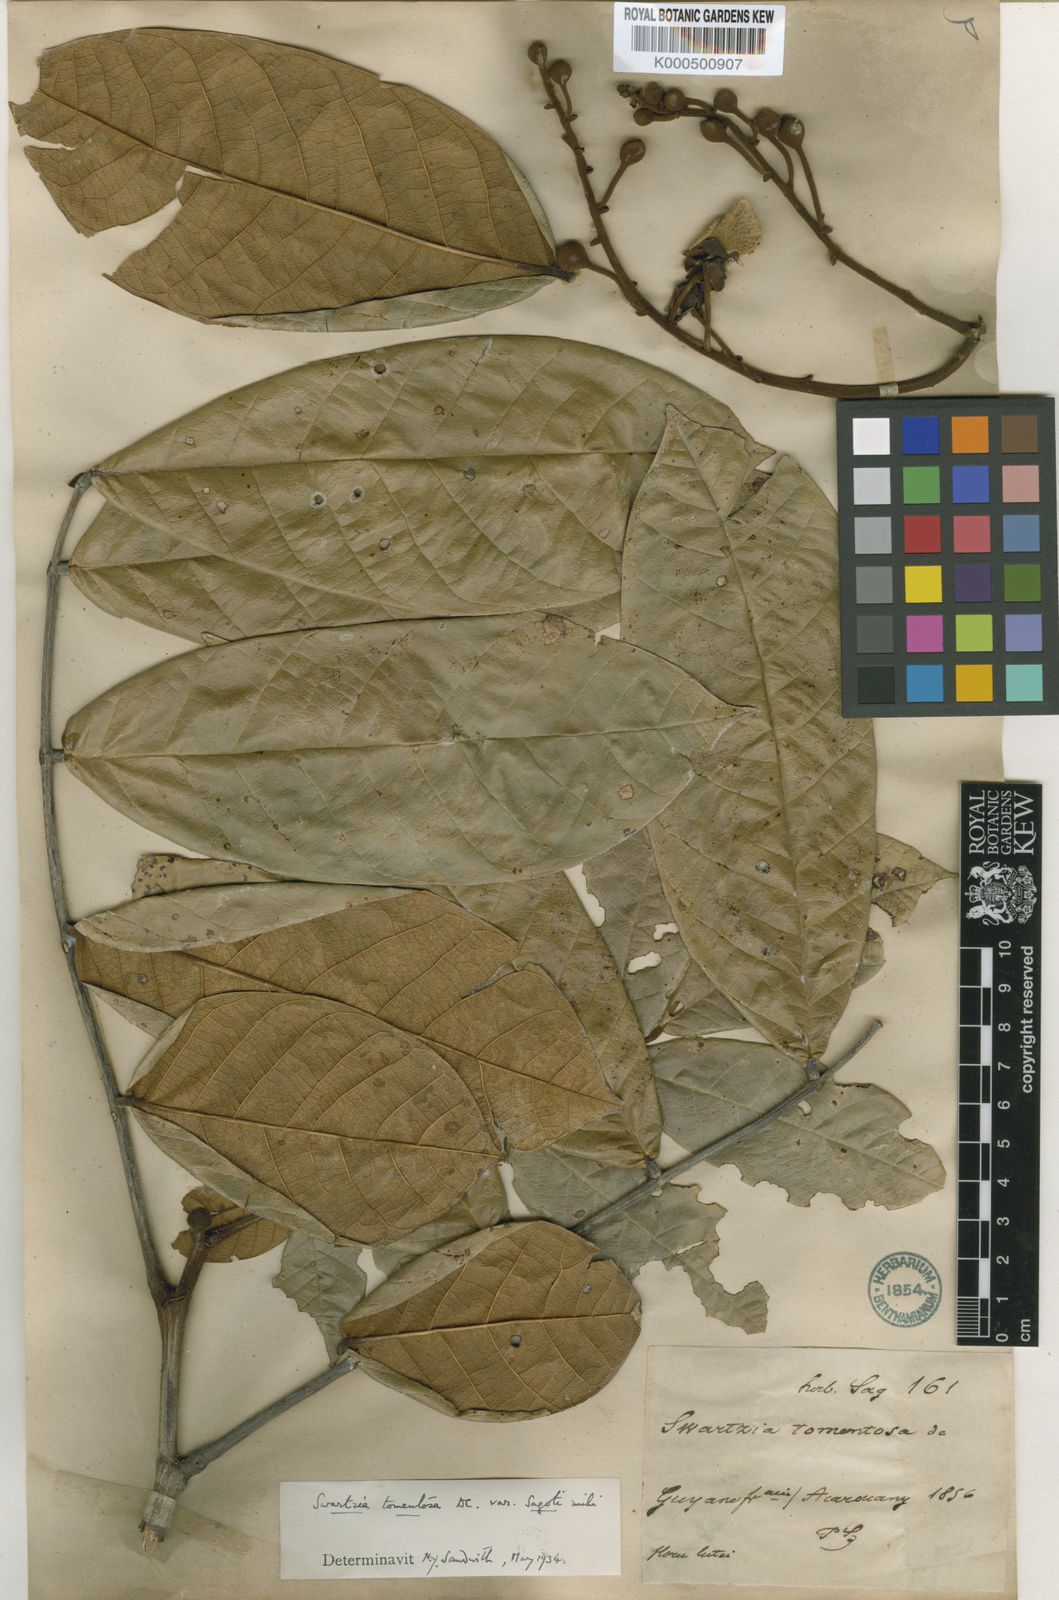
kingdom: Plantae
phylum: Tracheophyta
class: Magnoliopsida
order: Fabales
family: Fabaceae
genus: Swartzia
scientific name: Swartzia panacoco
